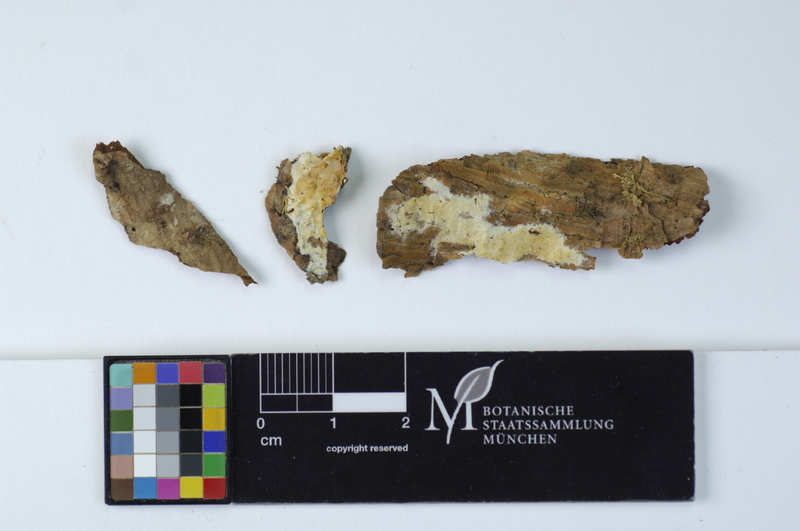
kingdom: Fungi
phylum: Basidiomycota
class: Agaricomycetes
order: Hymenochaetales
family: Schizoporaceae
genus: Xylodon
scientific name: Xylodon radula
